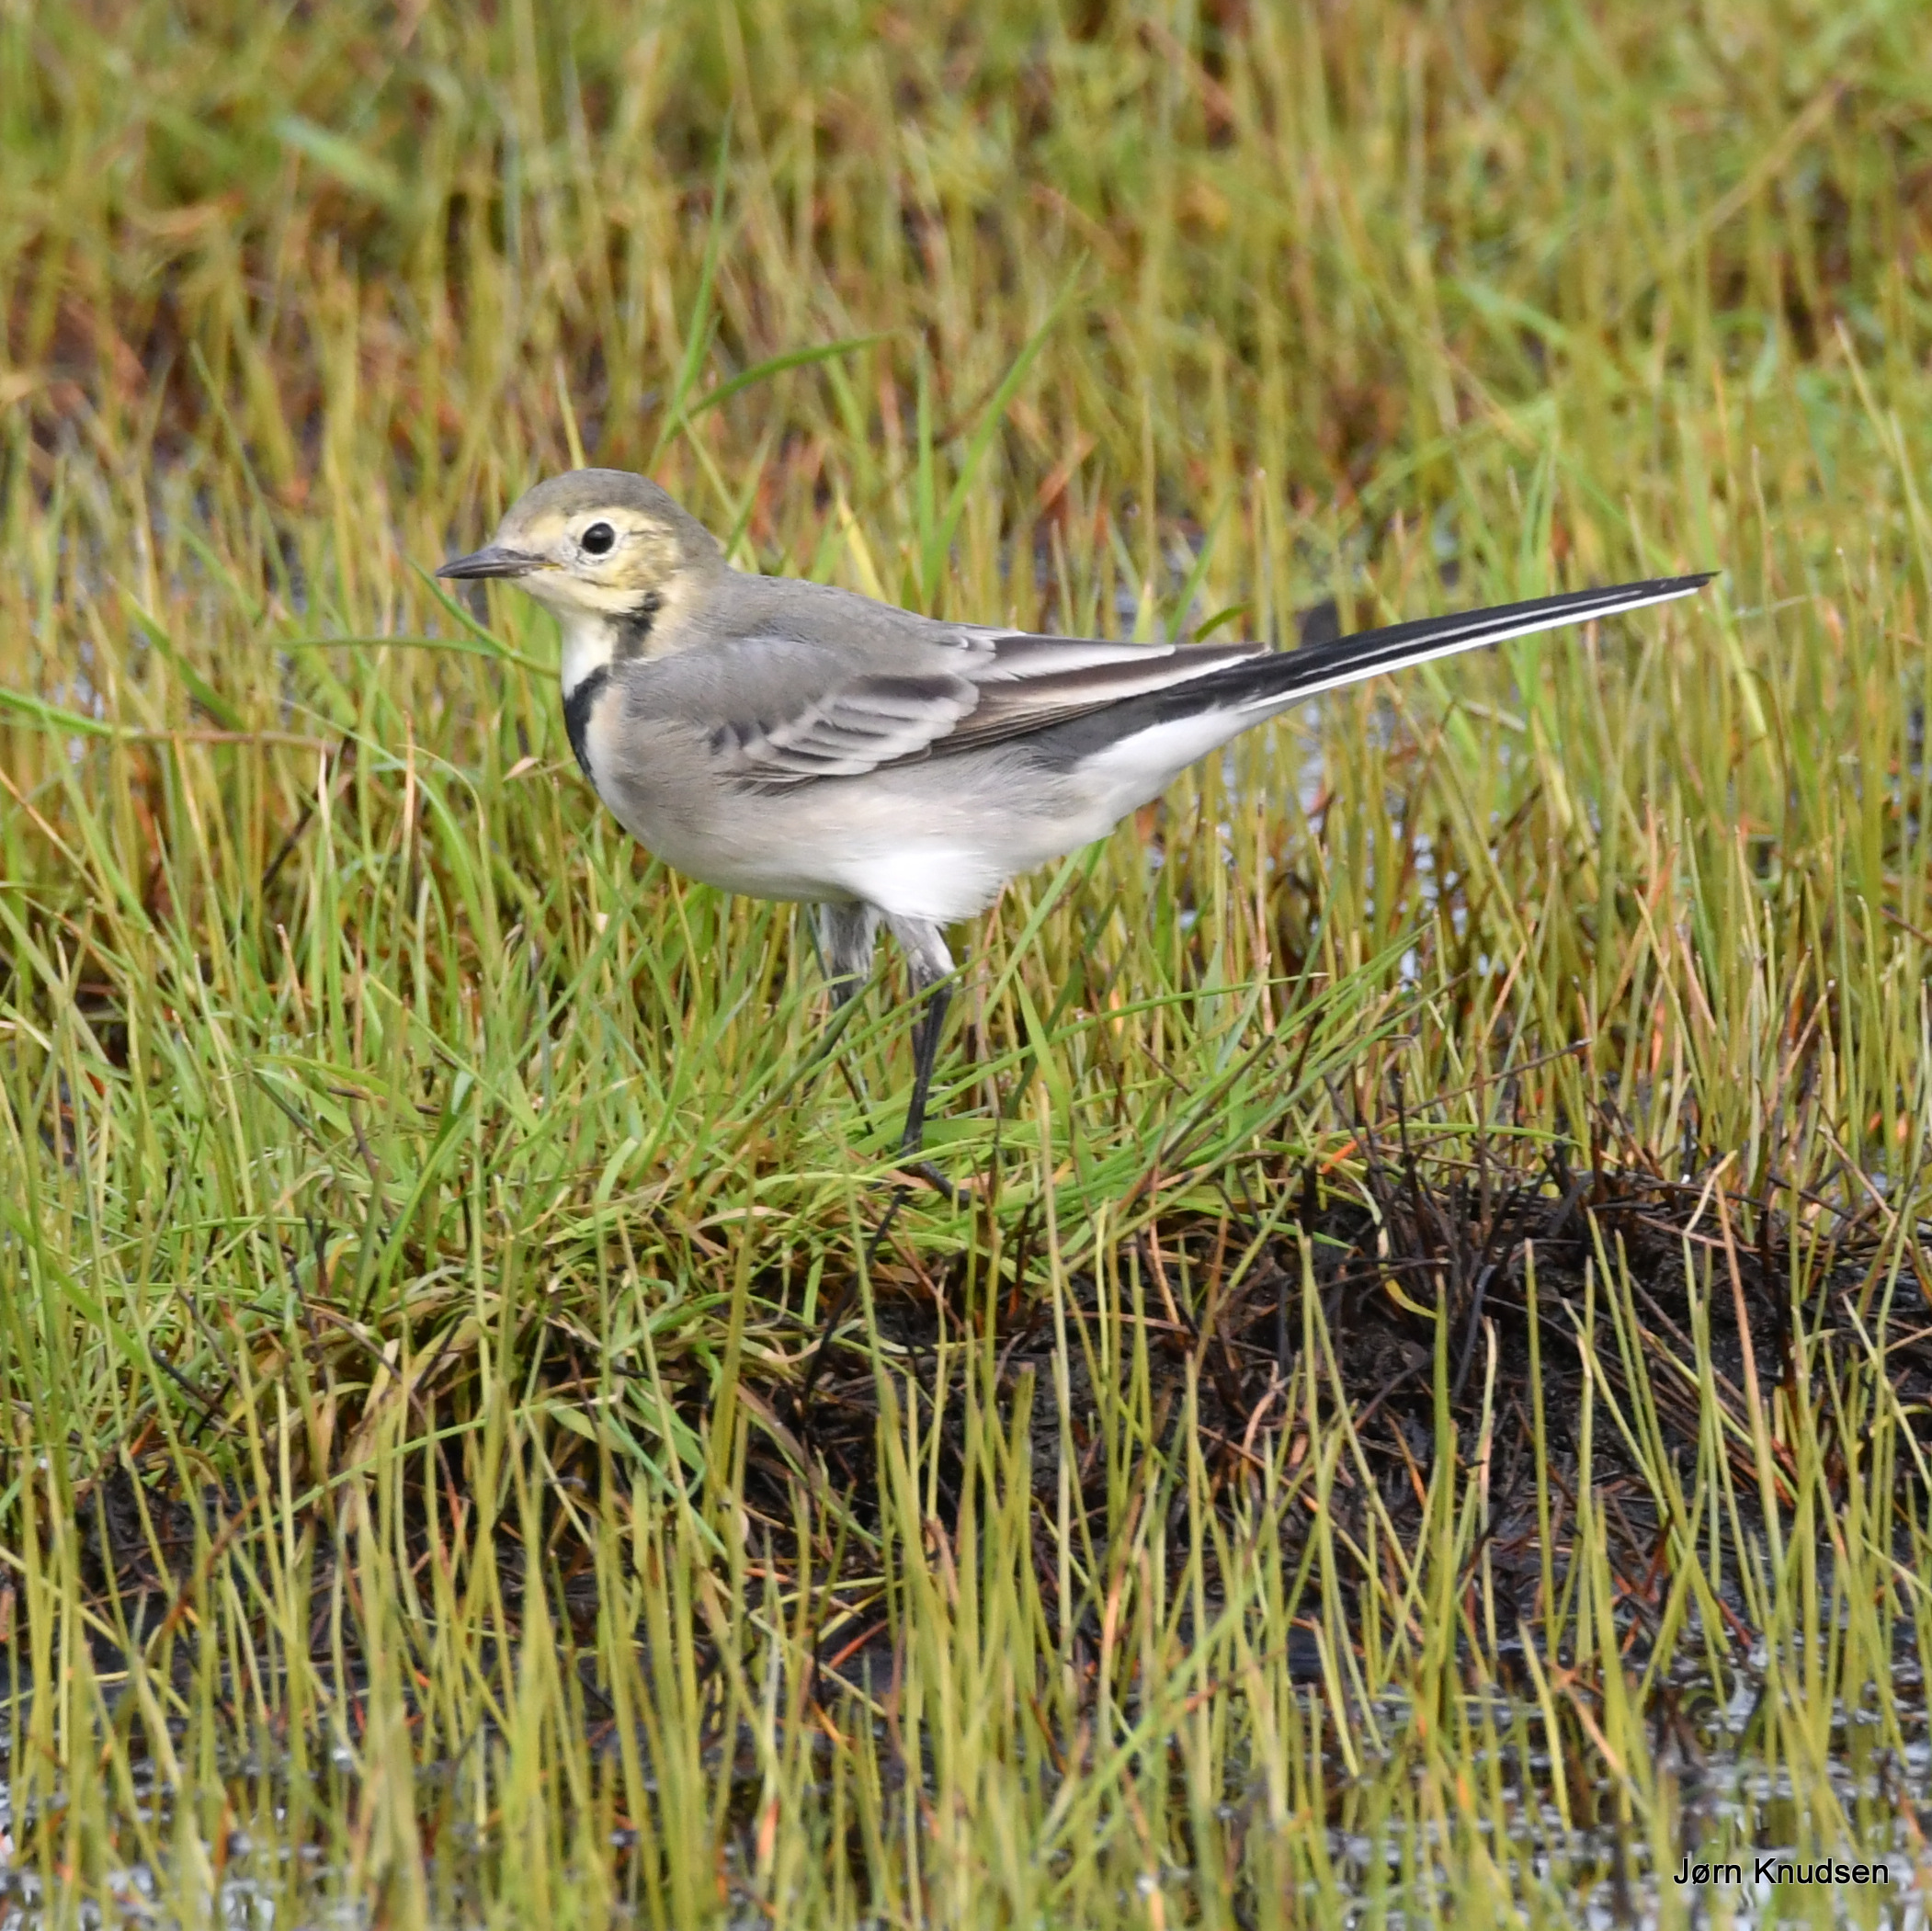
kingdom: Animalia
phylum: Chordata
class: Aves
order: Passeriformes
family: Motacillidae
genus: Motacilla
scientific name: Motacilla alba
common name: Hvid vipstjert
